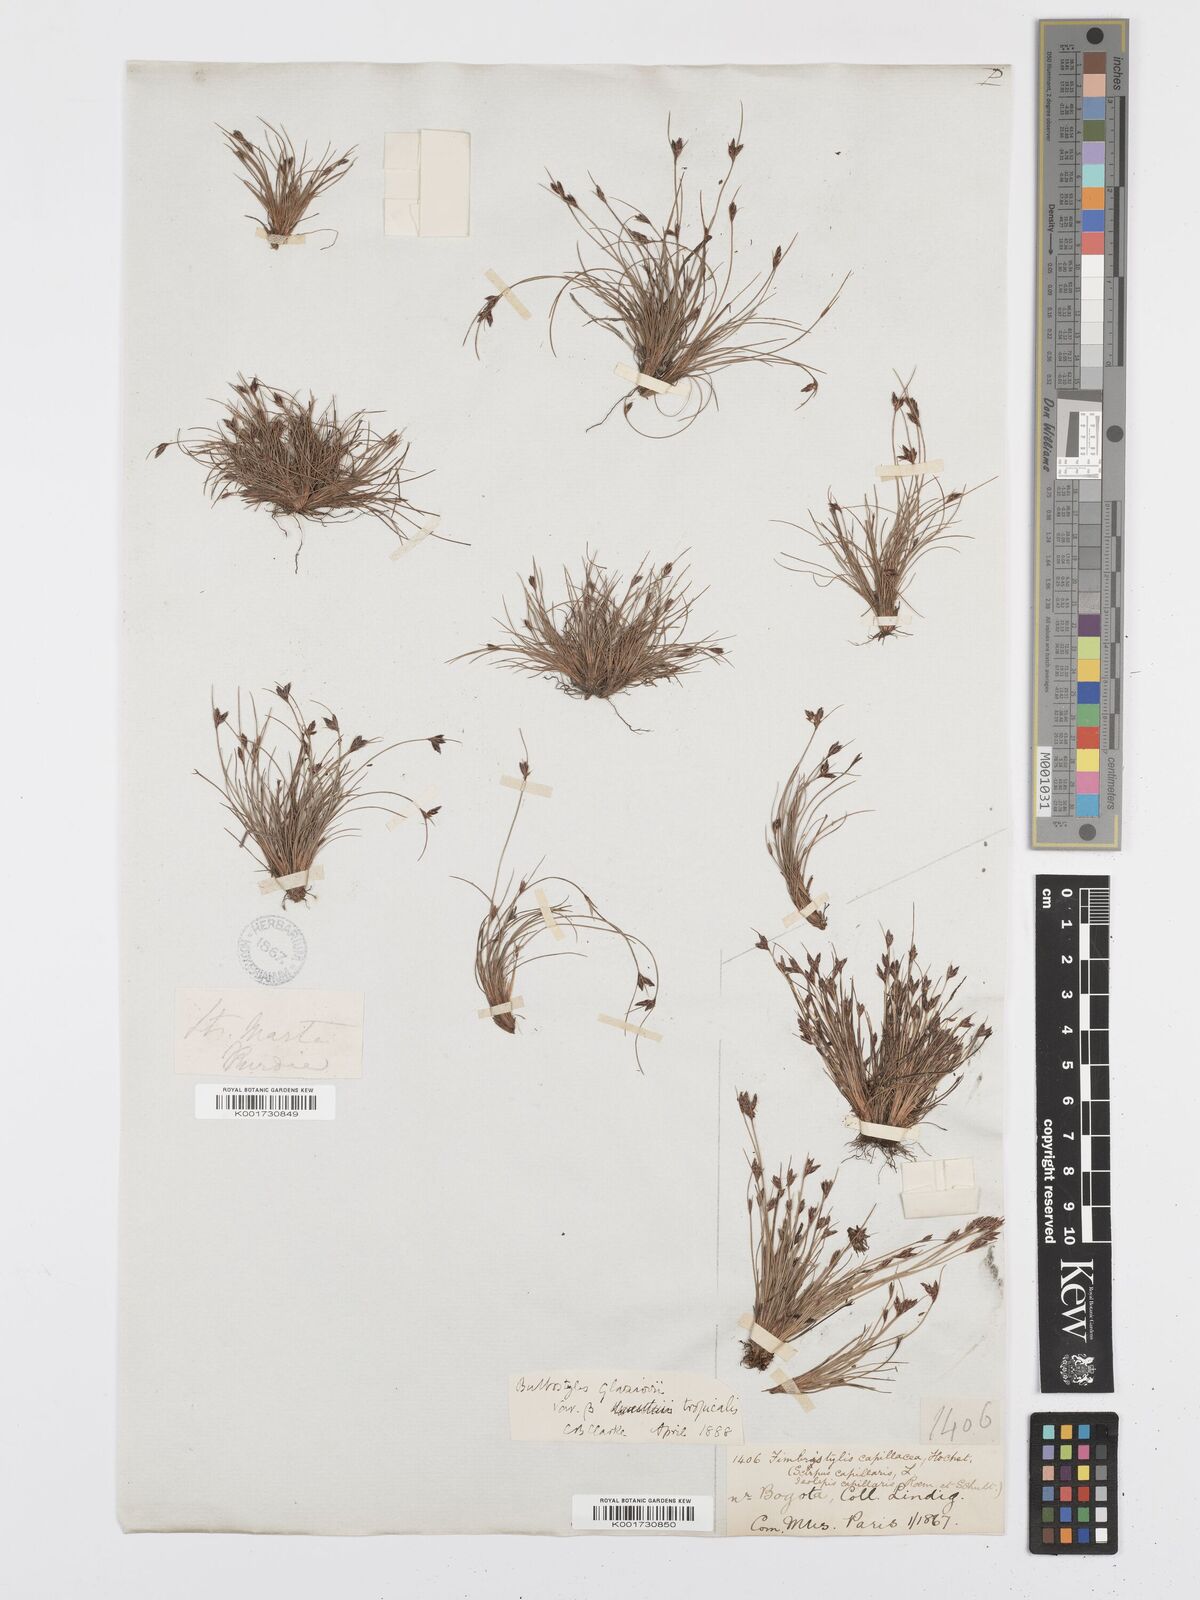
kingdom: Plantae
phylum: Tracheophyta
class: Liliopsida
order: Poales
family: Cyperaceae
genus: Bulbostylis
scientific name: Bulbostylis juncoides
